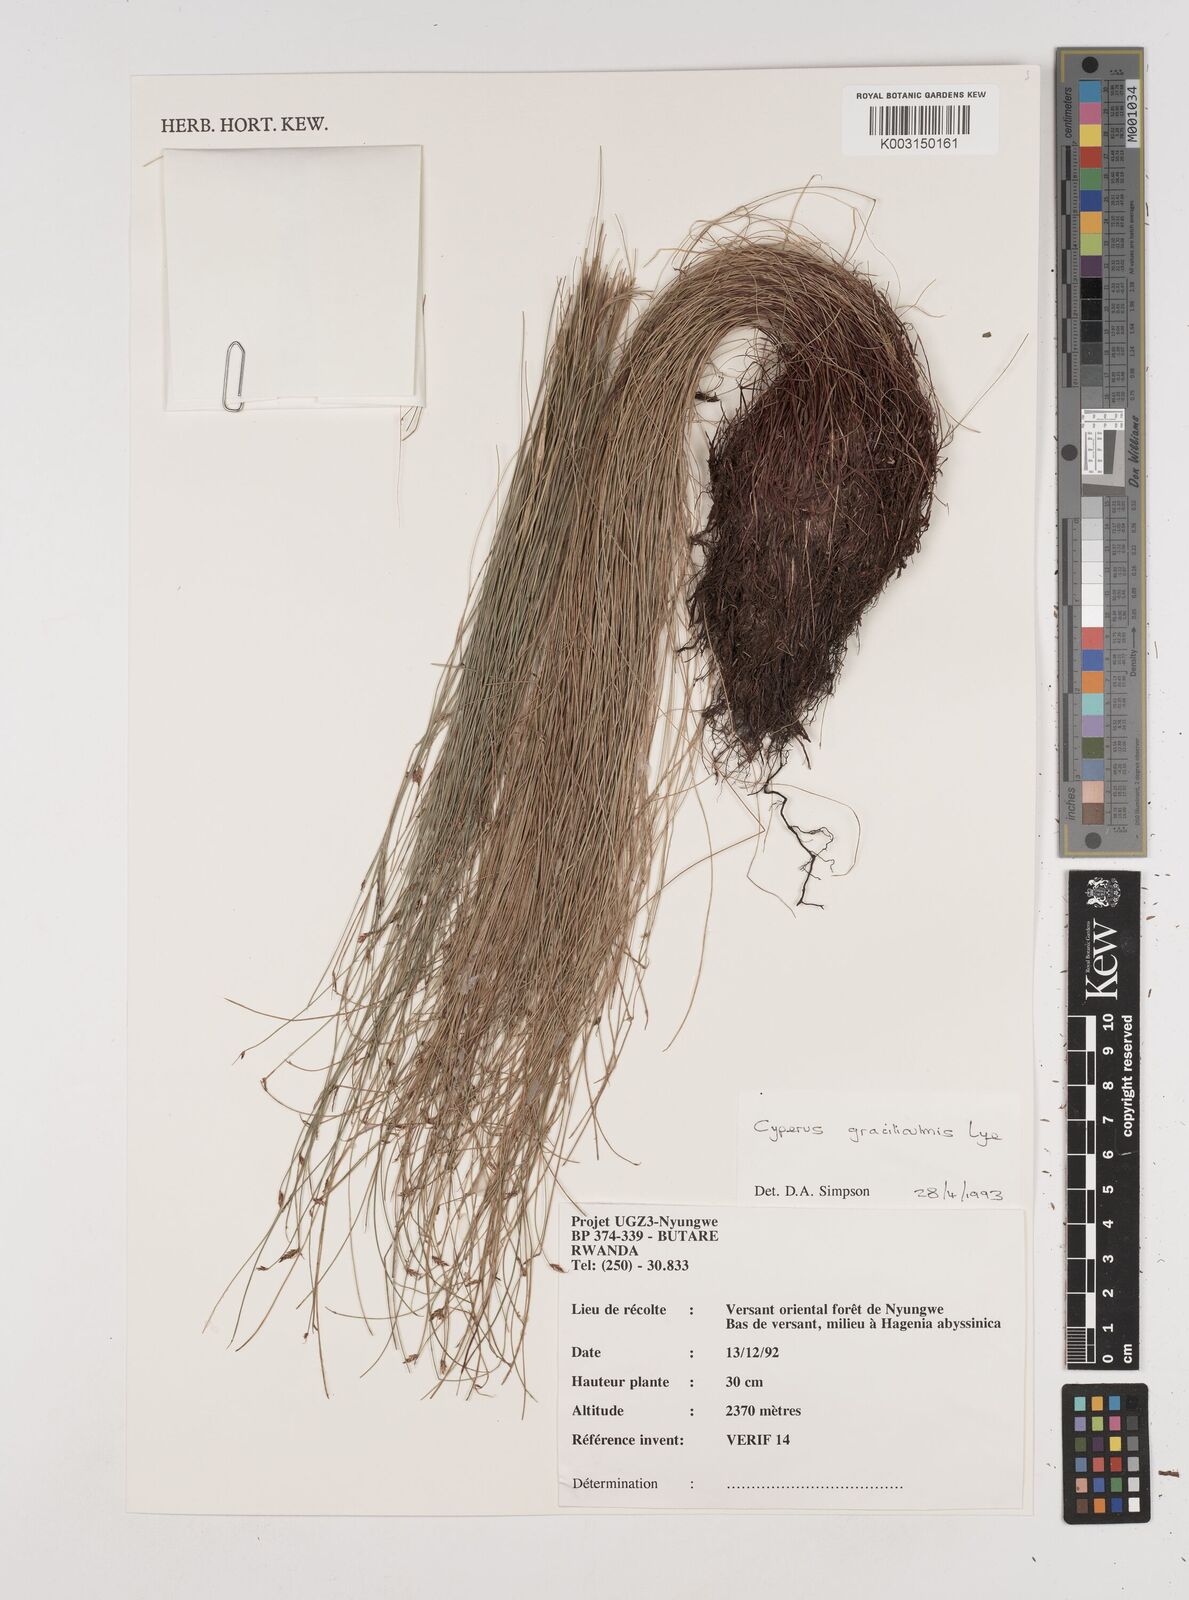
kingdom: Plantae
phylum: Tracheophyta
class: Liliopsida
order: Poales
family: Cyperaceae
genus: Cyperus
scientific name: Cyperus graciliculmis
